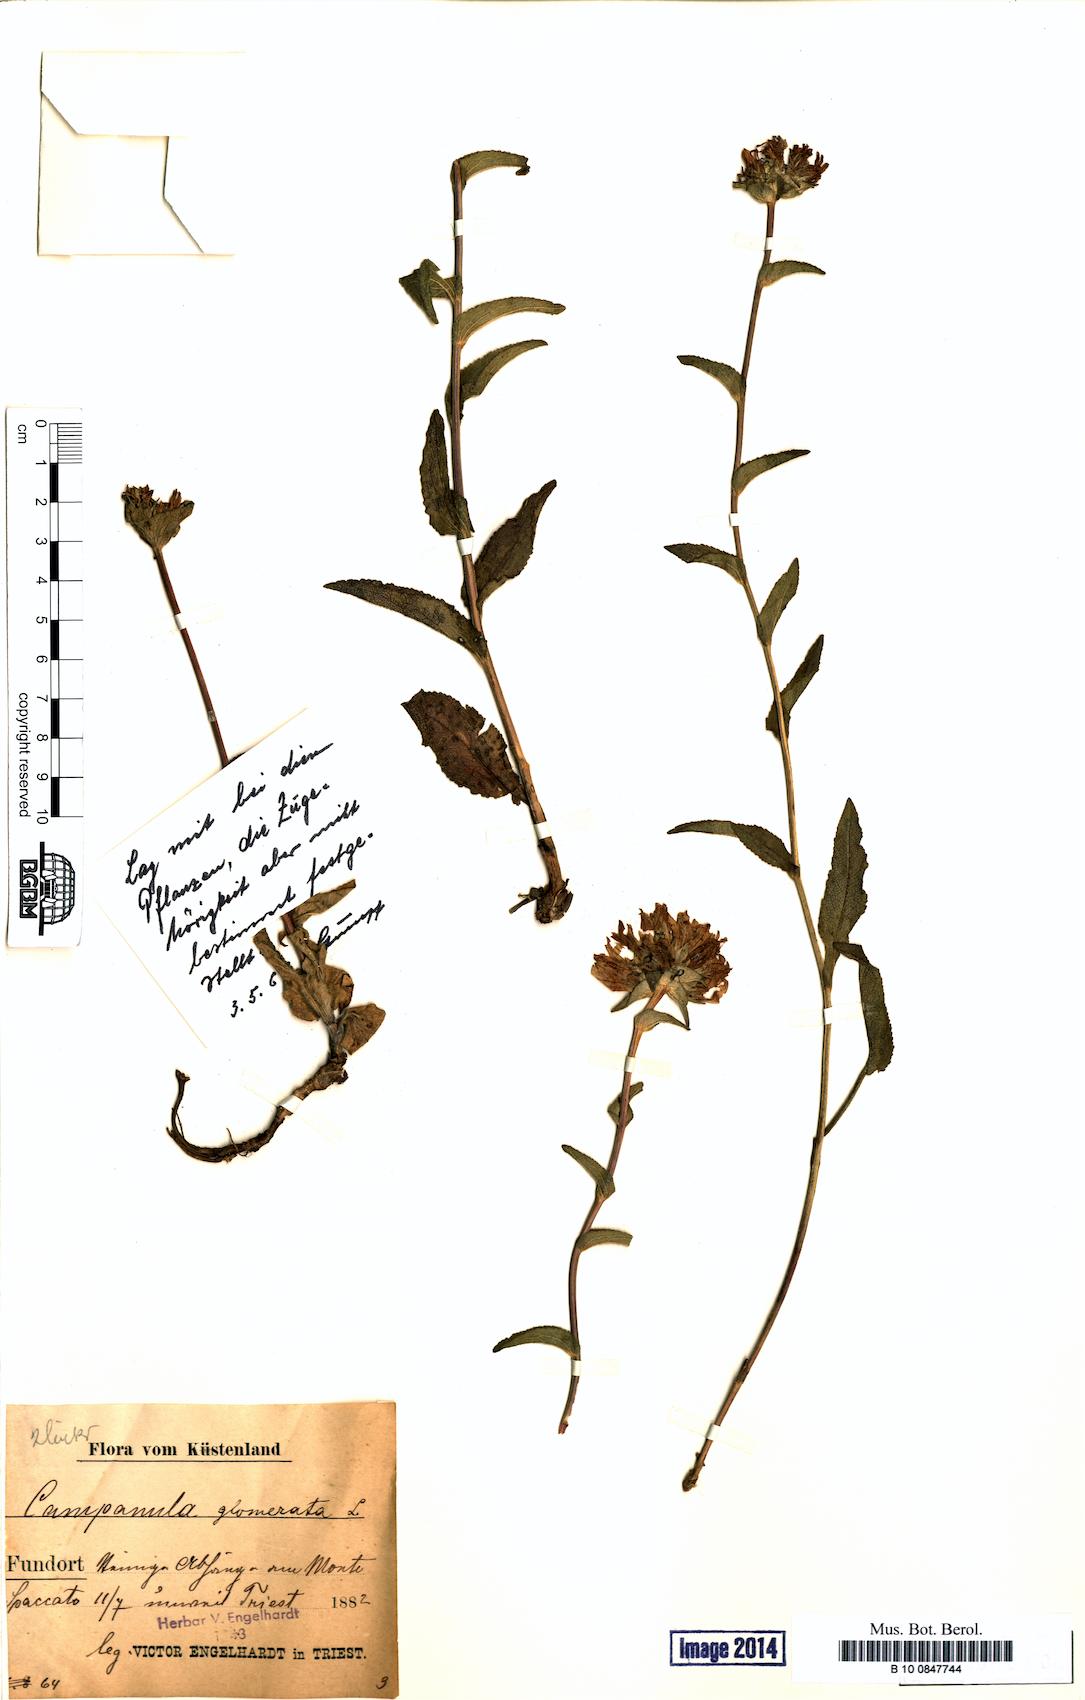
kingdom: Plantae
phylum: Tracheophyta
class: Magnoliopsida
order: Asterales
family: Campanulaceae
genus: Campanula
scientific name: Campanula glomerata
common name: Clustered bellflower
